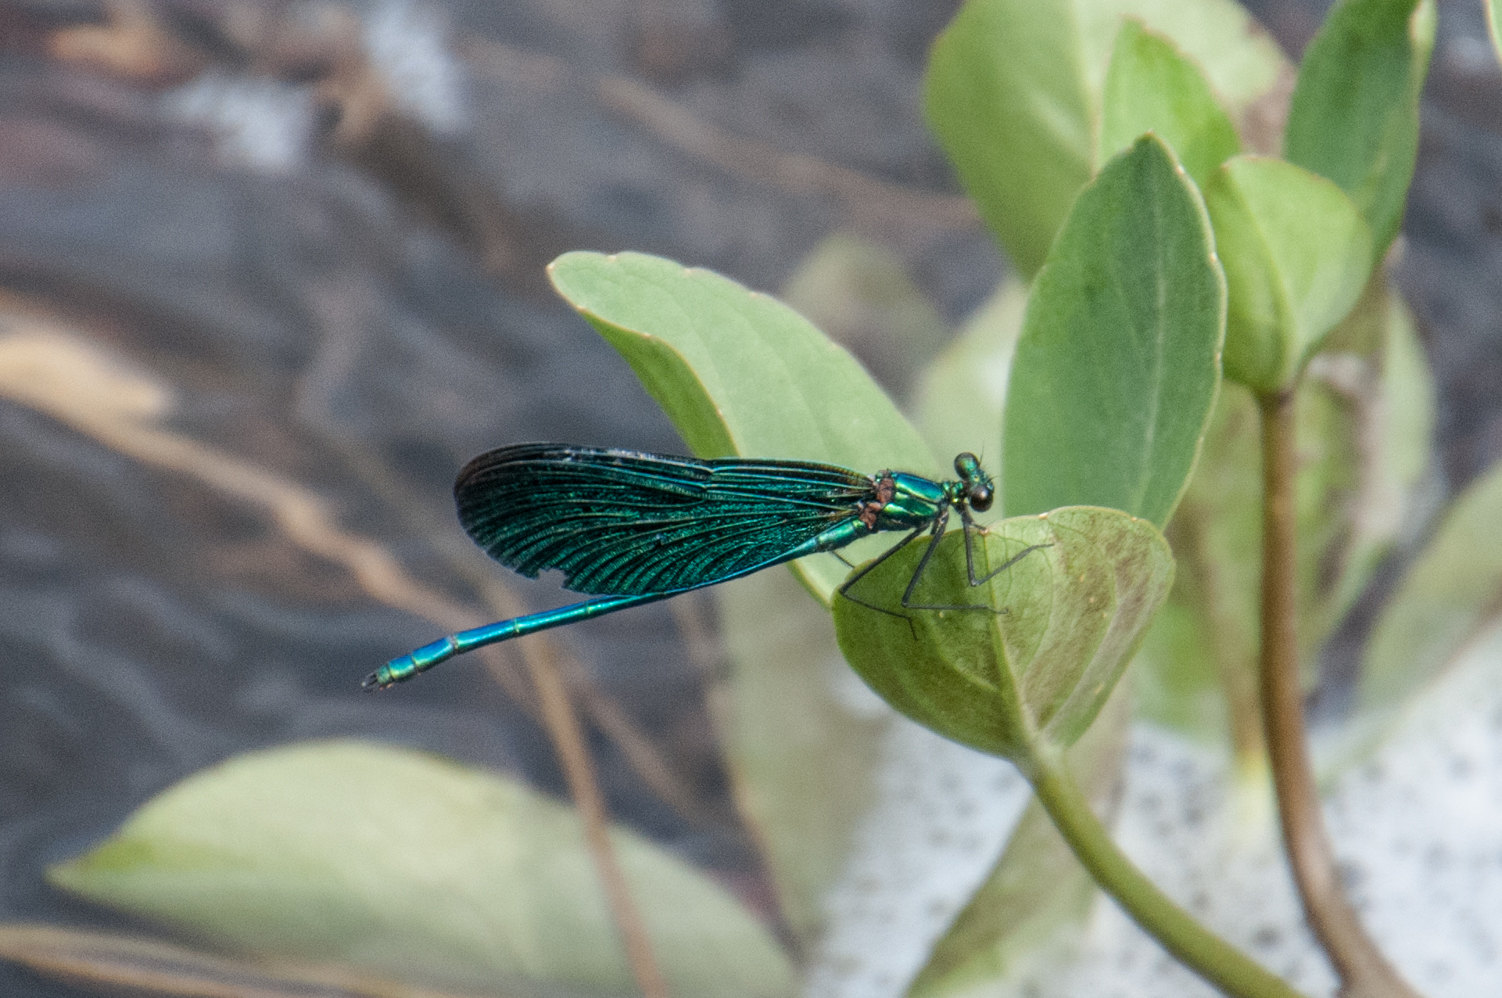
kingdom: Animalia
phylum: Arthropoda
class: Insecta
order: Odonata
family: Calopterygidae
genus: Calopteryx
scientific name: Calopteryx virgo
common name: Beautiful demoiselle
